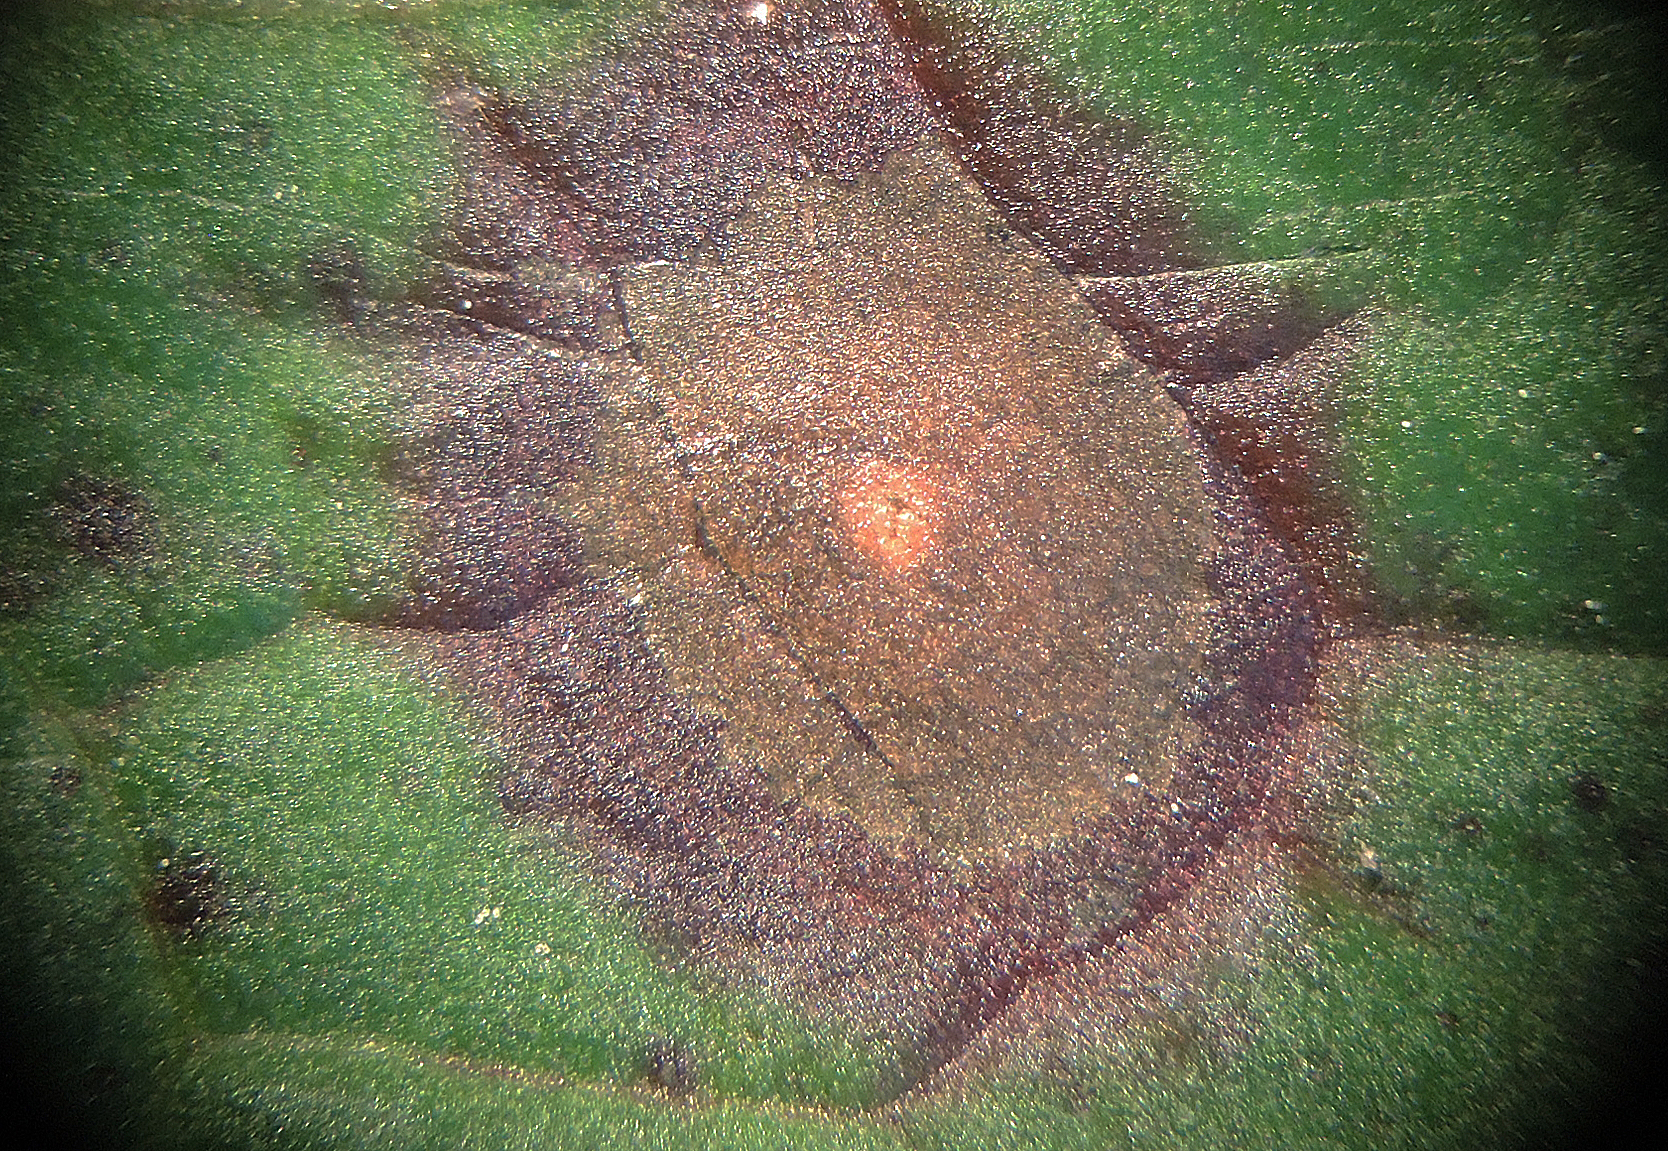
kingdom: Fungi
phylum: Ascomycota
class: Dothideomycetes
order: Mycosphaerellales
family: Mycosphaerellaceae
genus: Ramularia
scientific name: Ramularia rubella
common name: Red dock spot
